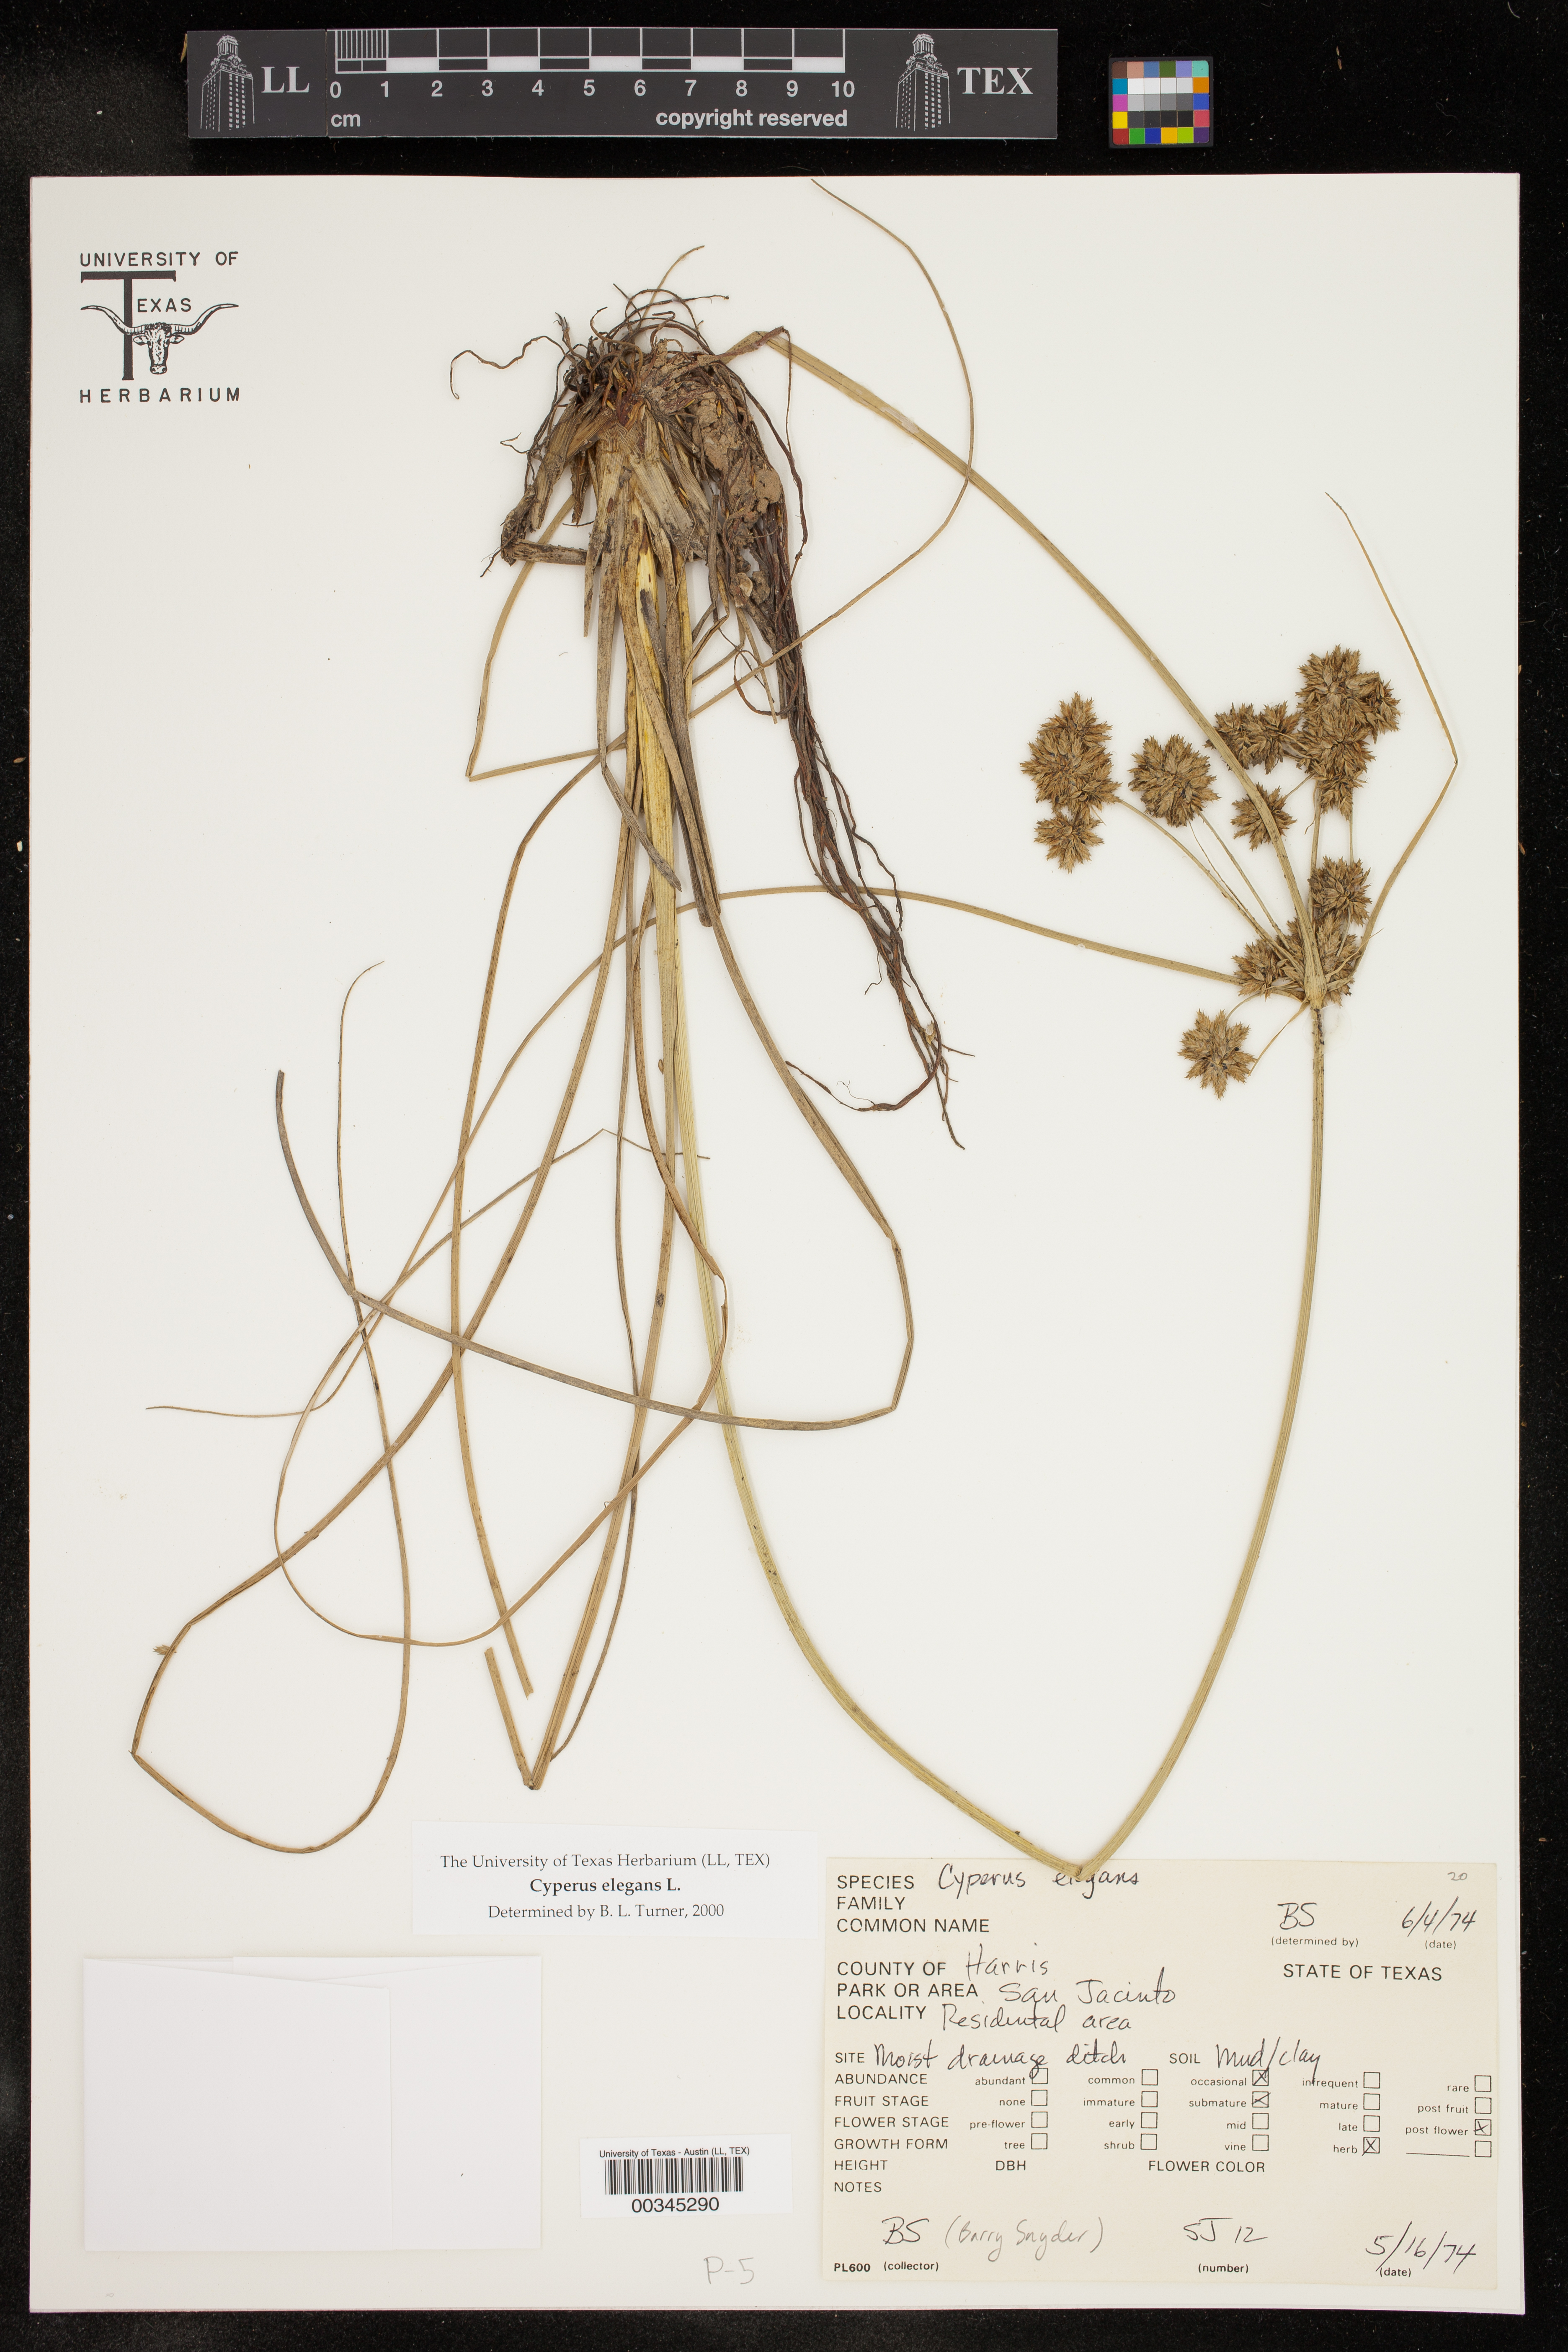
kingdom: Plantae
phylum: Tracheophyta
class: Liliopsida
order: Poales
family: Cyperaceae
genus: Cyperus
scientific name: Cyperus elegans
